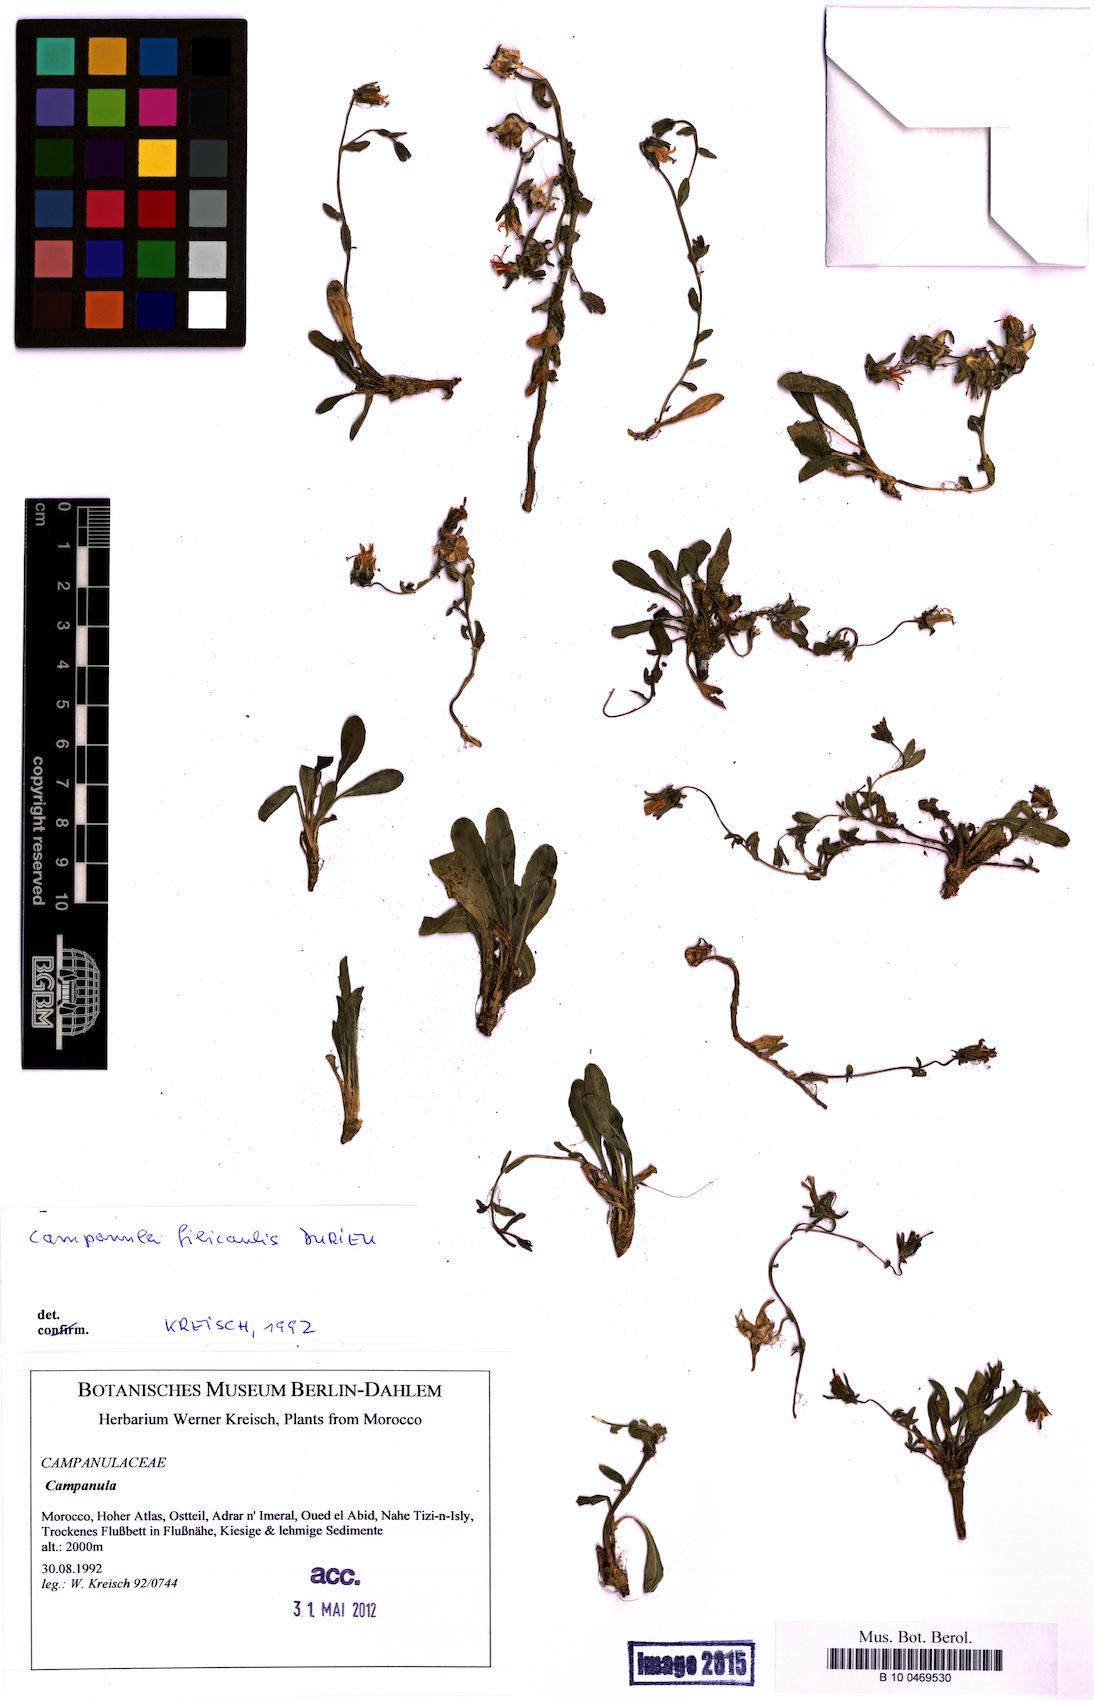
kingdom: Plantae
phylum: Tracheophyta
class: Magnoliopsida
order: Asterales
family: Campanulaceae
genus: Campanula
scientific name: Campanula filicaulis
